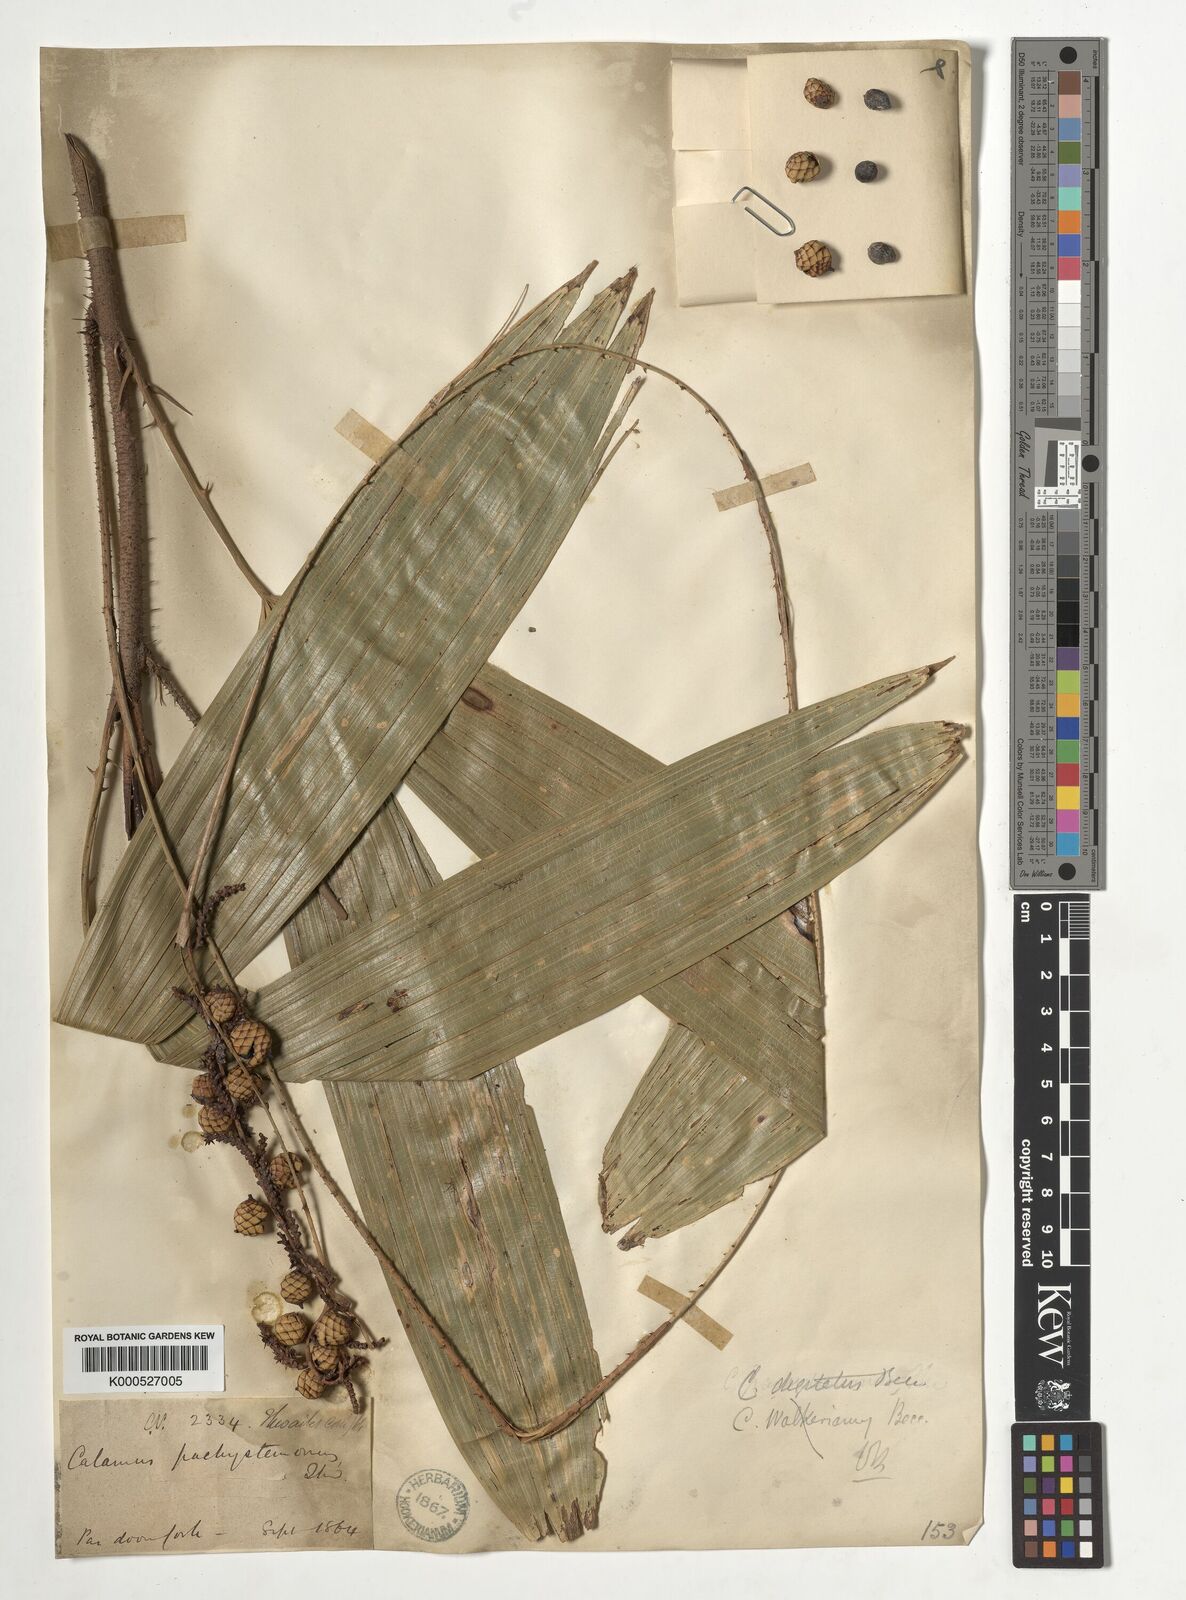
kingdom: Plantae
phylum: Tracheophyta
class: Liliopsida
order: Arecales
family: Arecaceae
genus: Calamus
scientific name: Calamus digitatus
